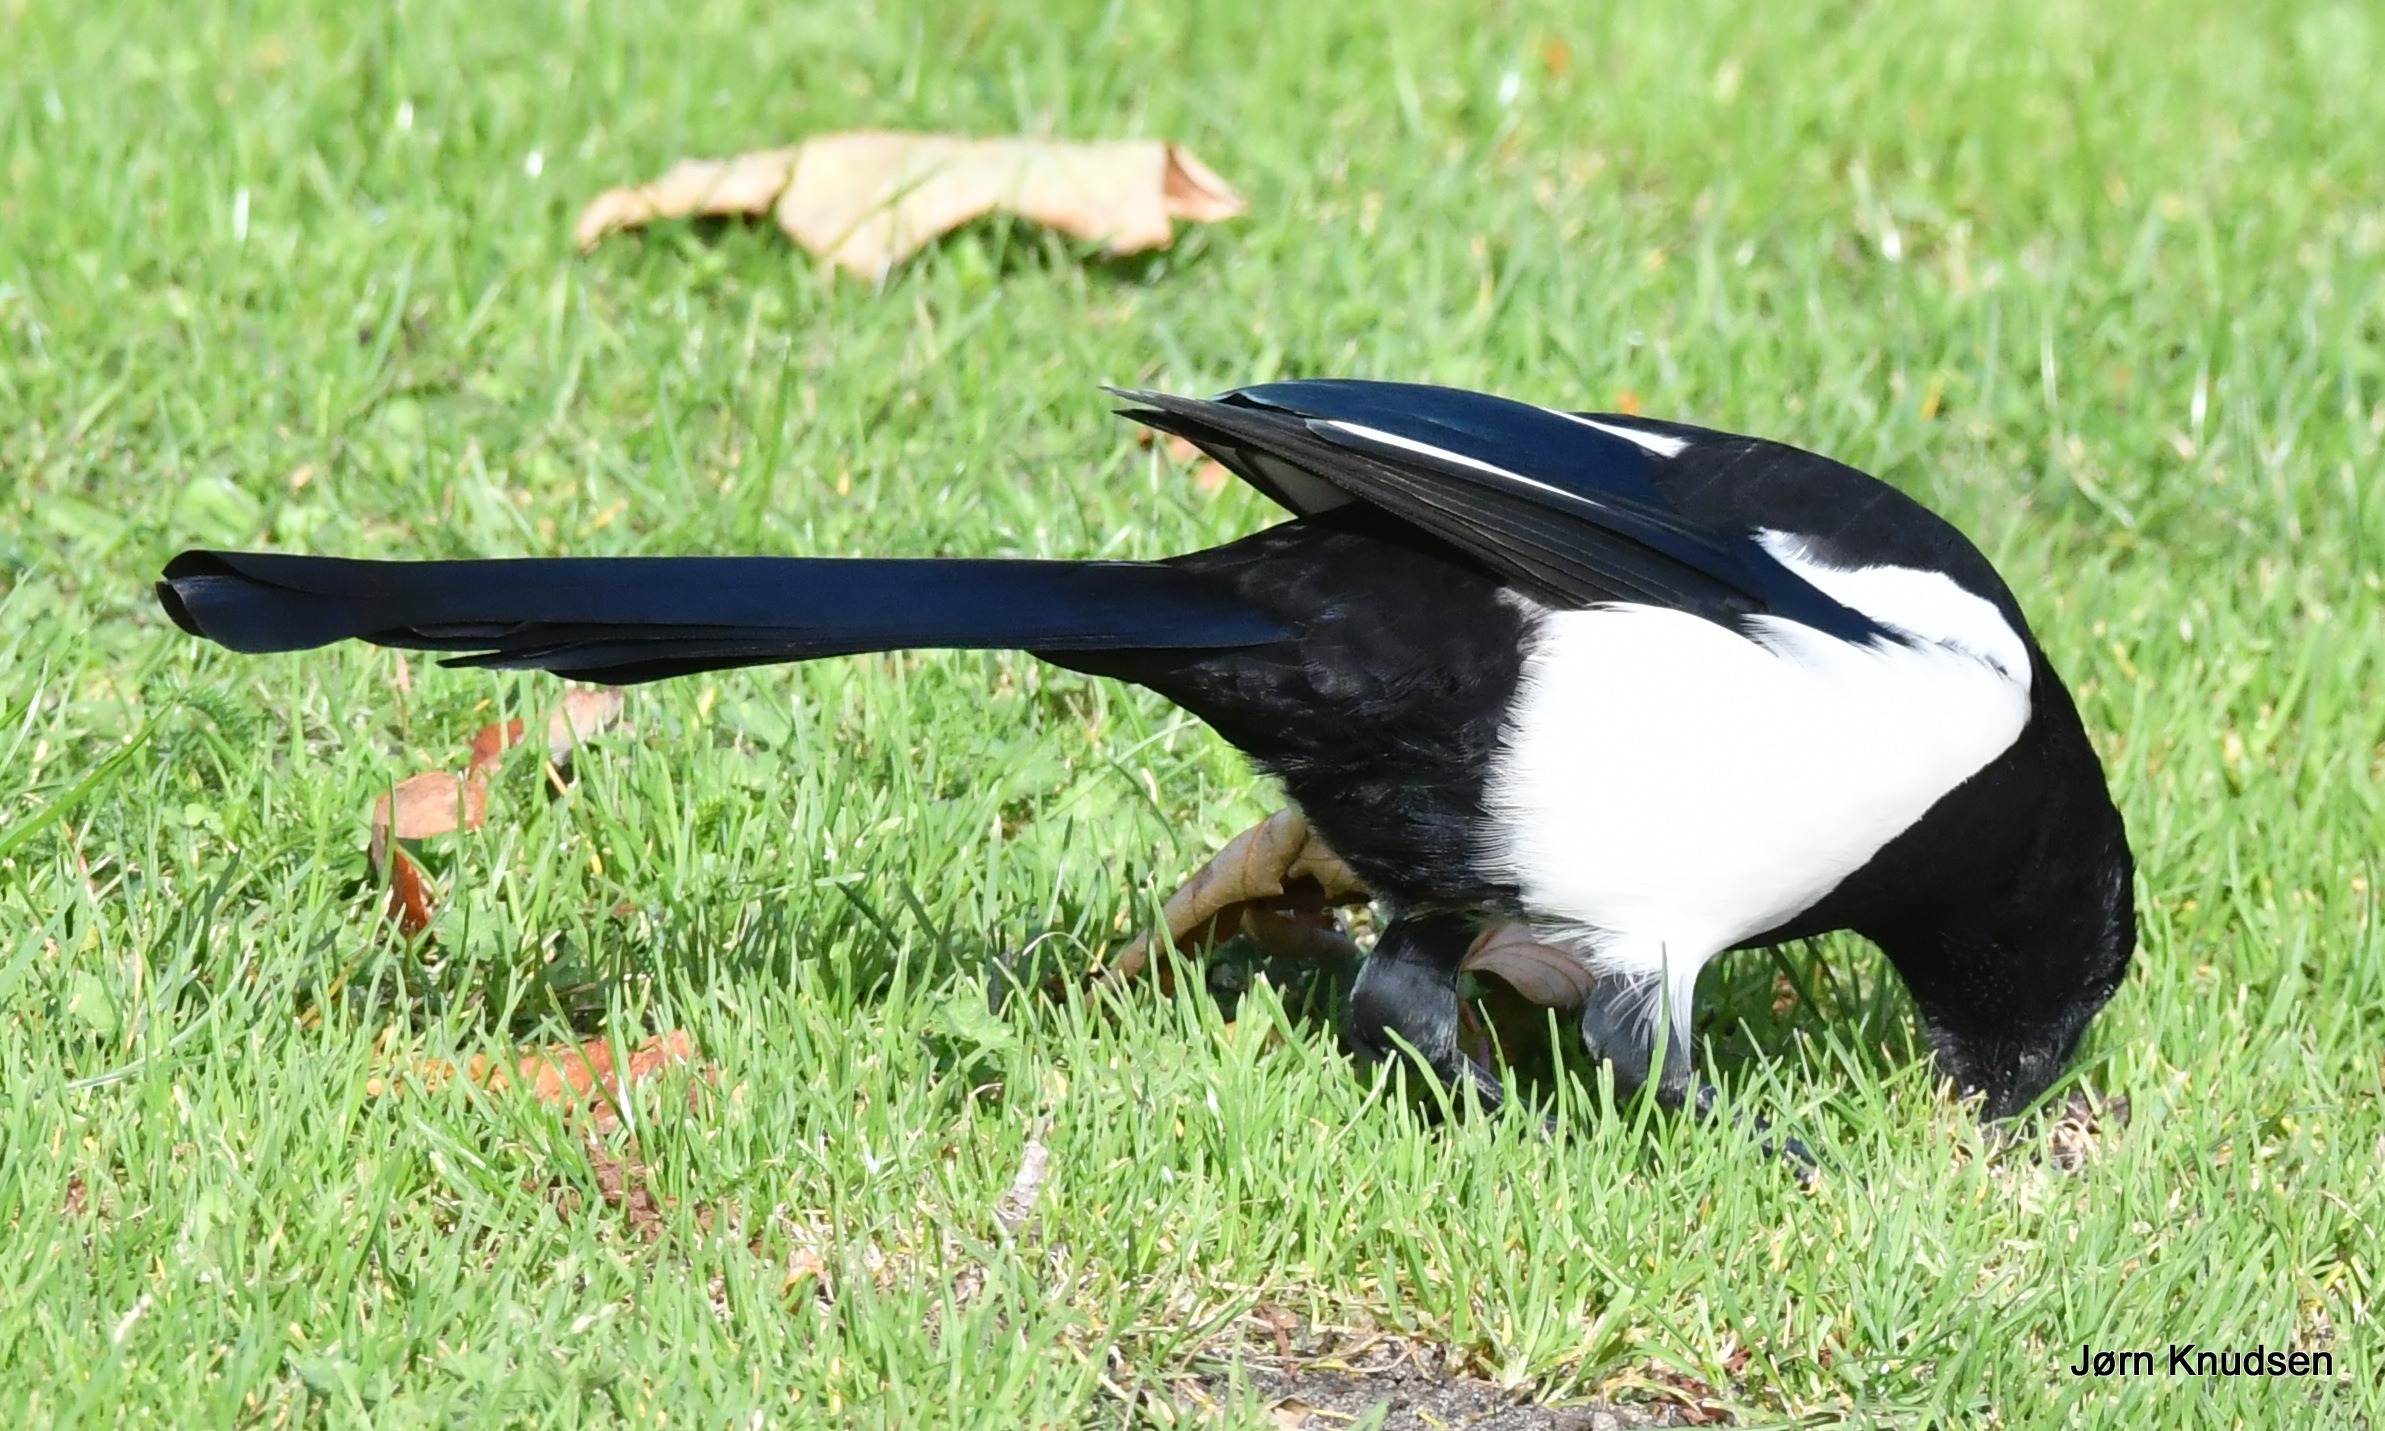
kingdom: Animalia
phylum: Chordata
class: Aves
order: Passeriformes
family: Corvidae
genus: Pica
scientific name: Pica pica
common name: Husskade
